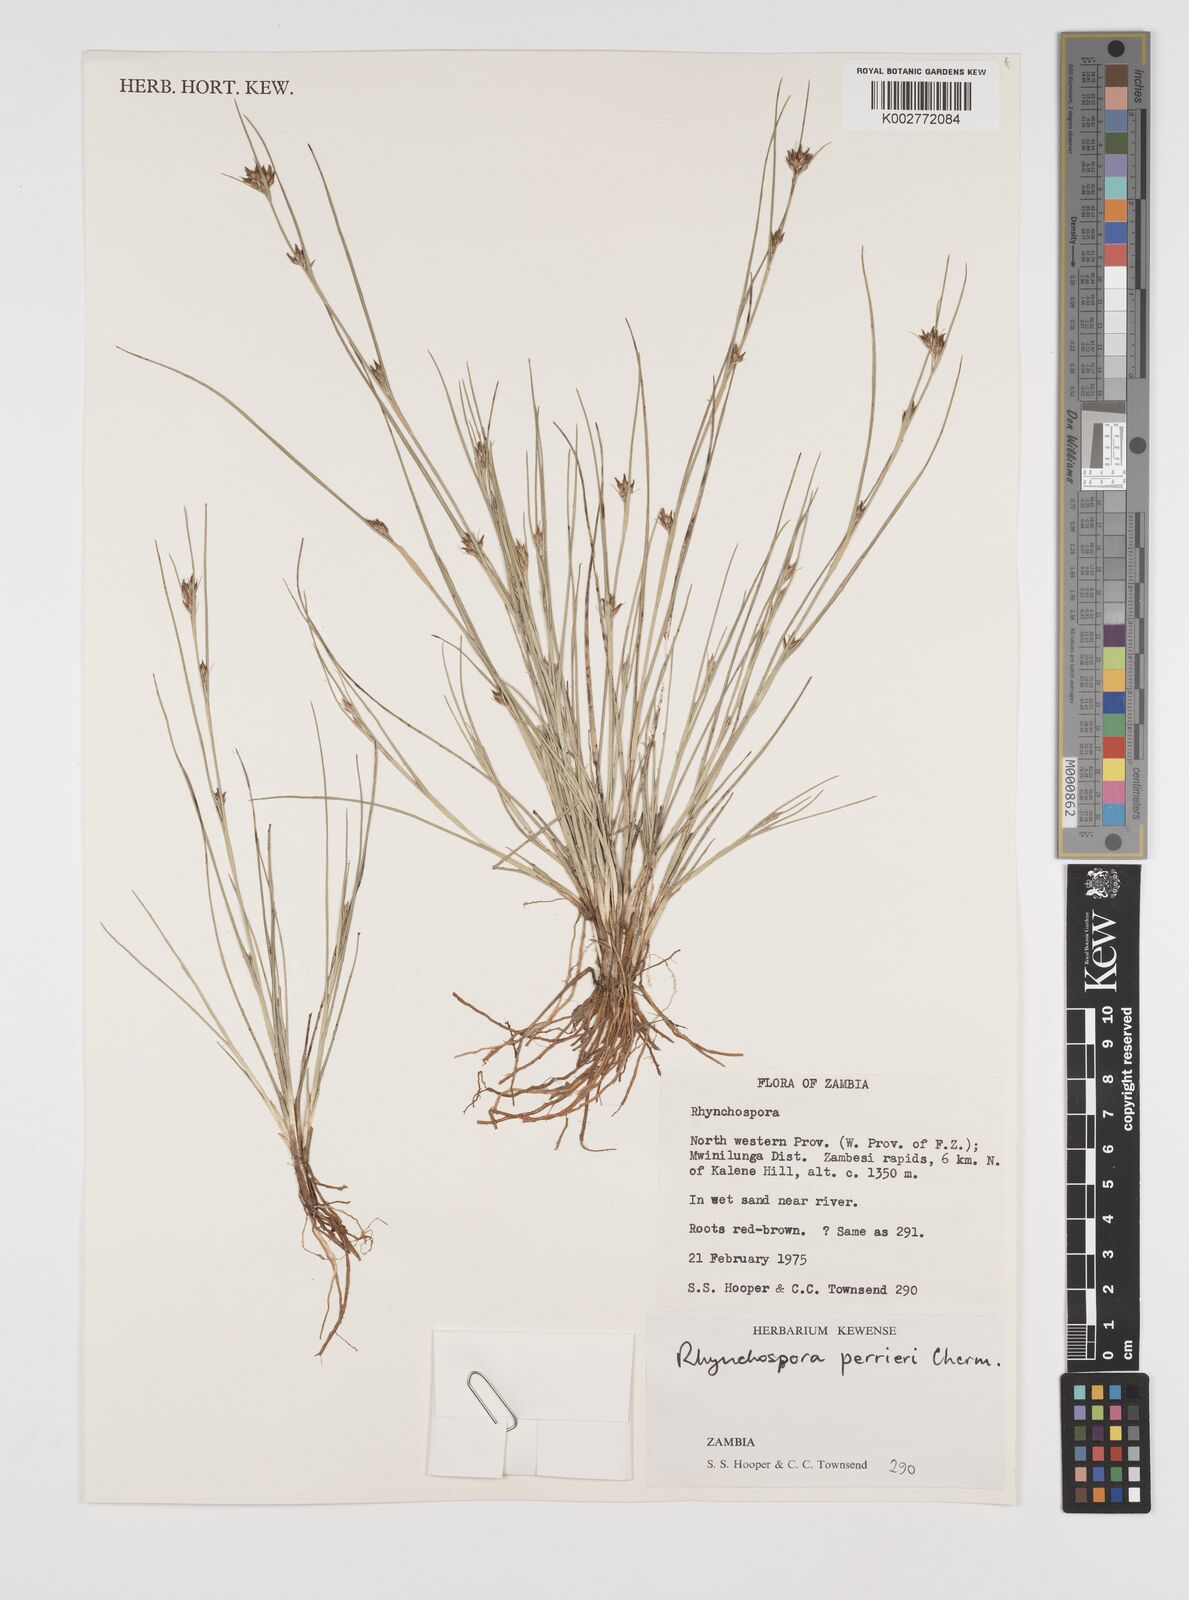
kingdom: Plantae
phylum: Tracheophyta
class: Liliopsida
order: Poales
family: Cyperaceae
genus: Rhynchospora
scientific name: Rhynchospora perrieri
